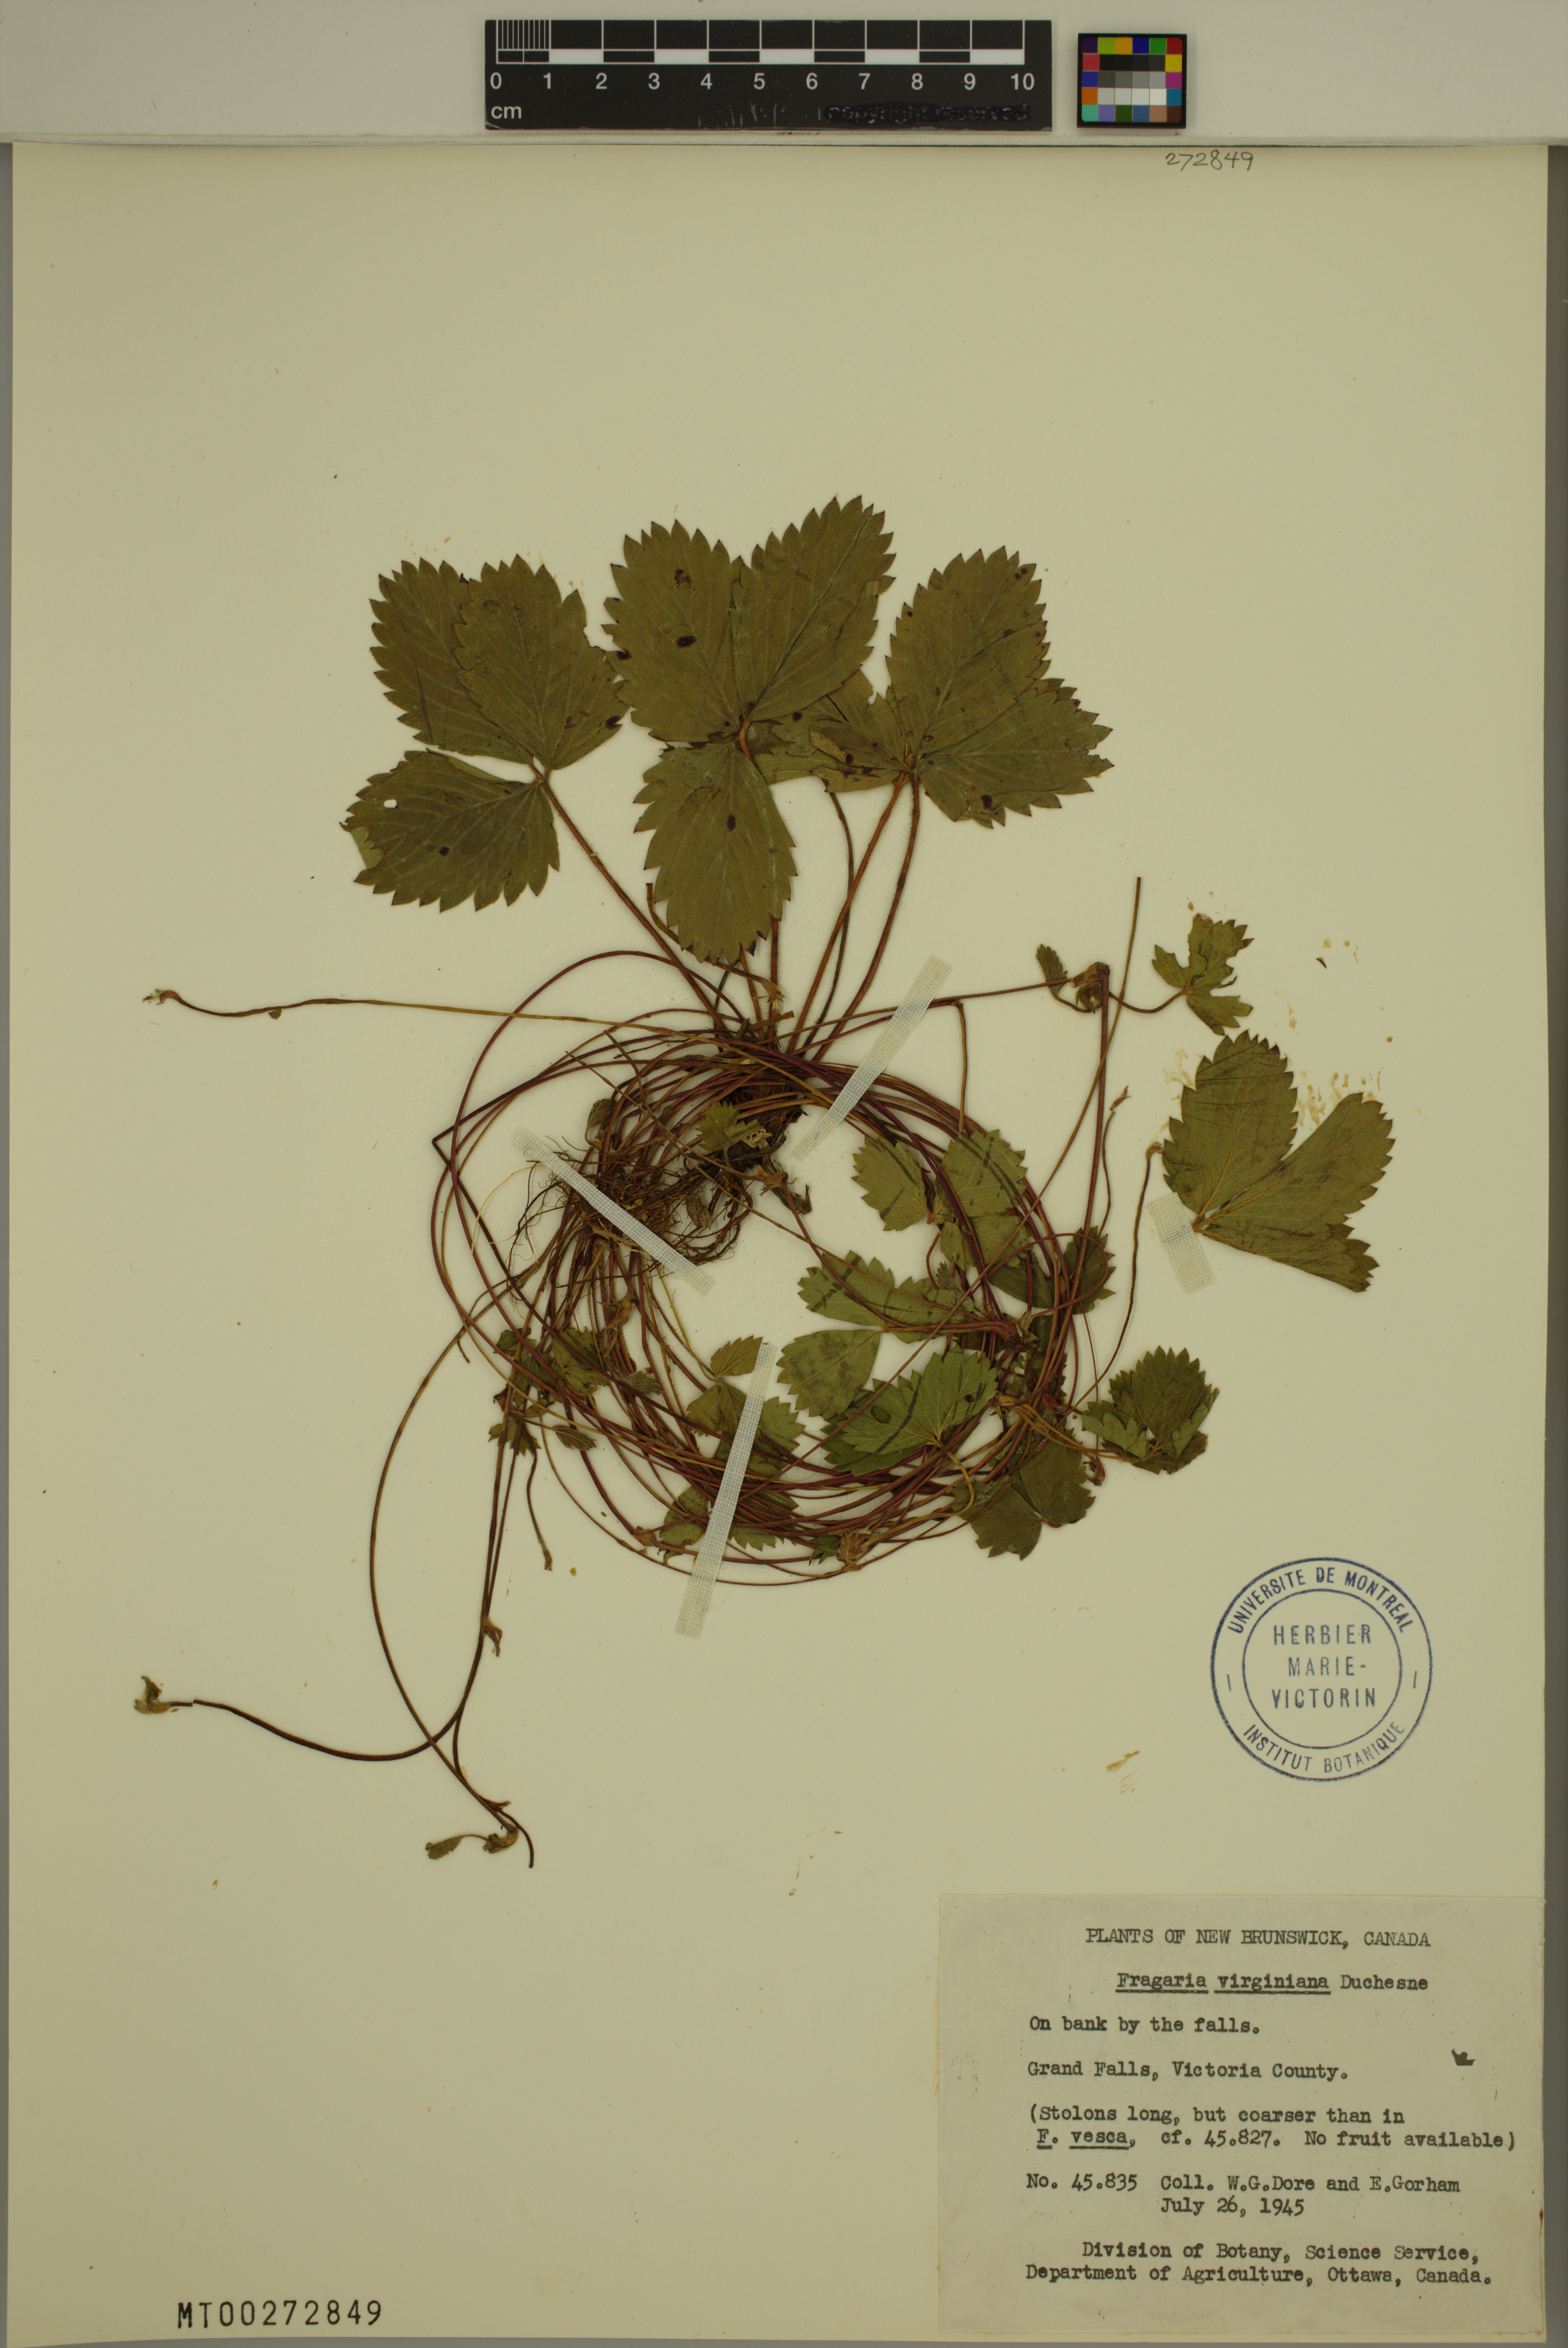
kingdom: Plantae
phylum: Tracheophyta
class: Magnoliopsida
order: Rosales
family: Rosaceae
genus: Fragaria
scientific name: Fragaria virginiana
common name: Thickleaved wild strawberry
